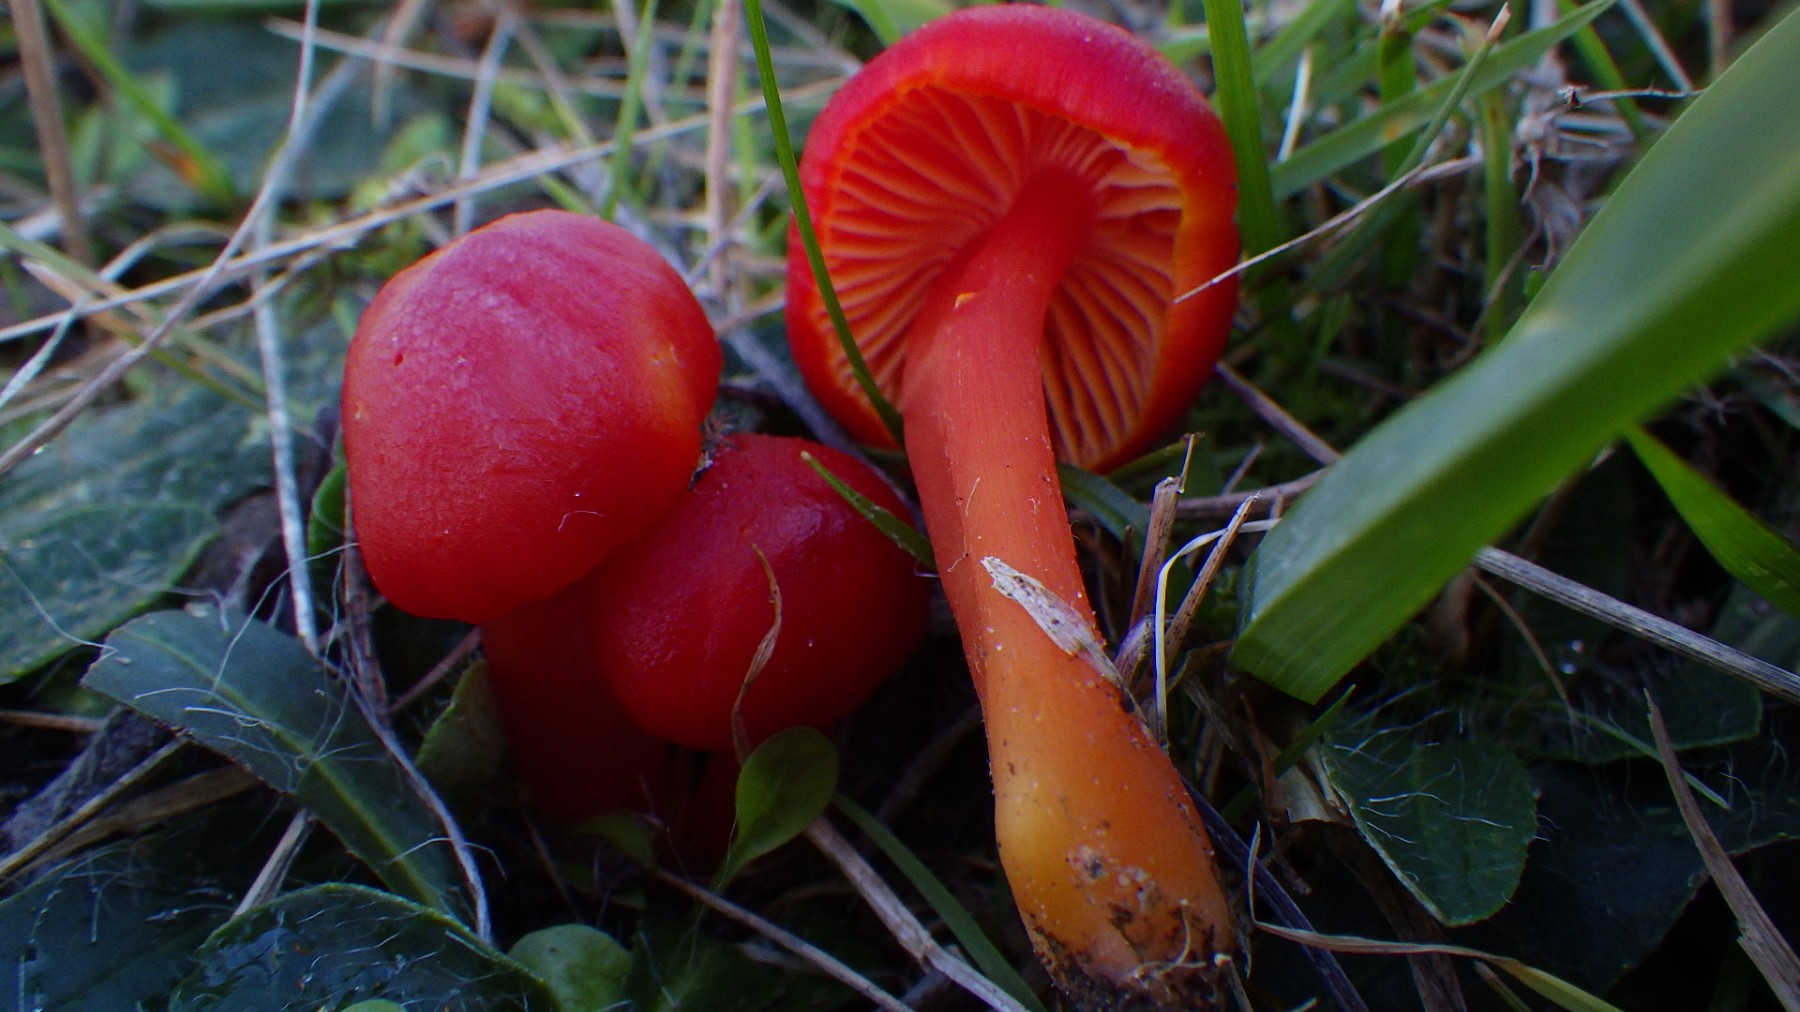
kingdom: Fungi
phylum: Basidiomycota
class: Agaricomycetes
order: Agaricales
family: Hygrophoraceae
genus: Hygrocybe
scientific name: Hygrocybe coccinea
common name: cinnober-vokshat
